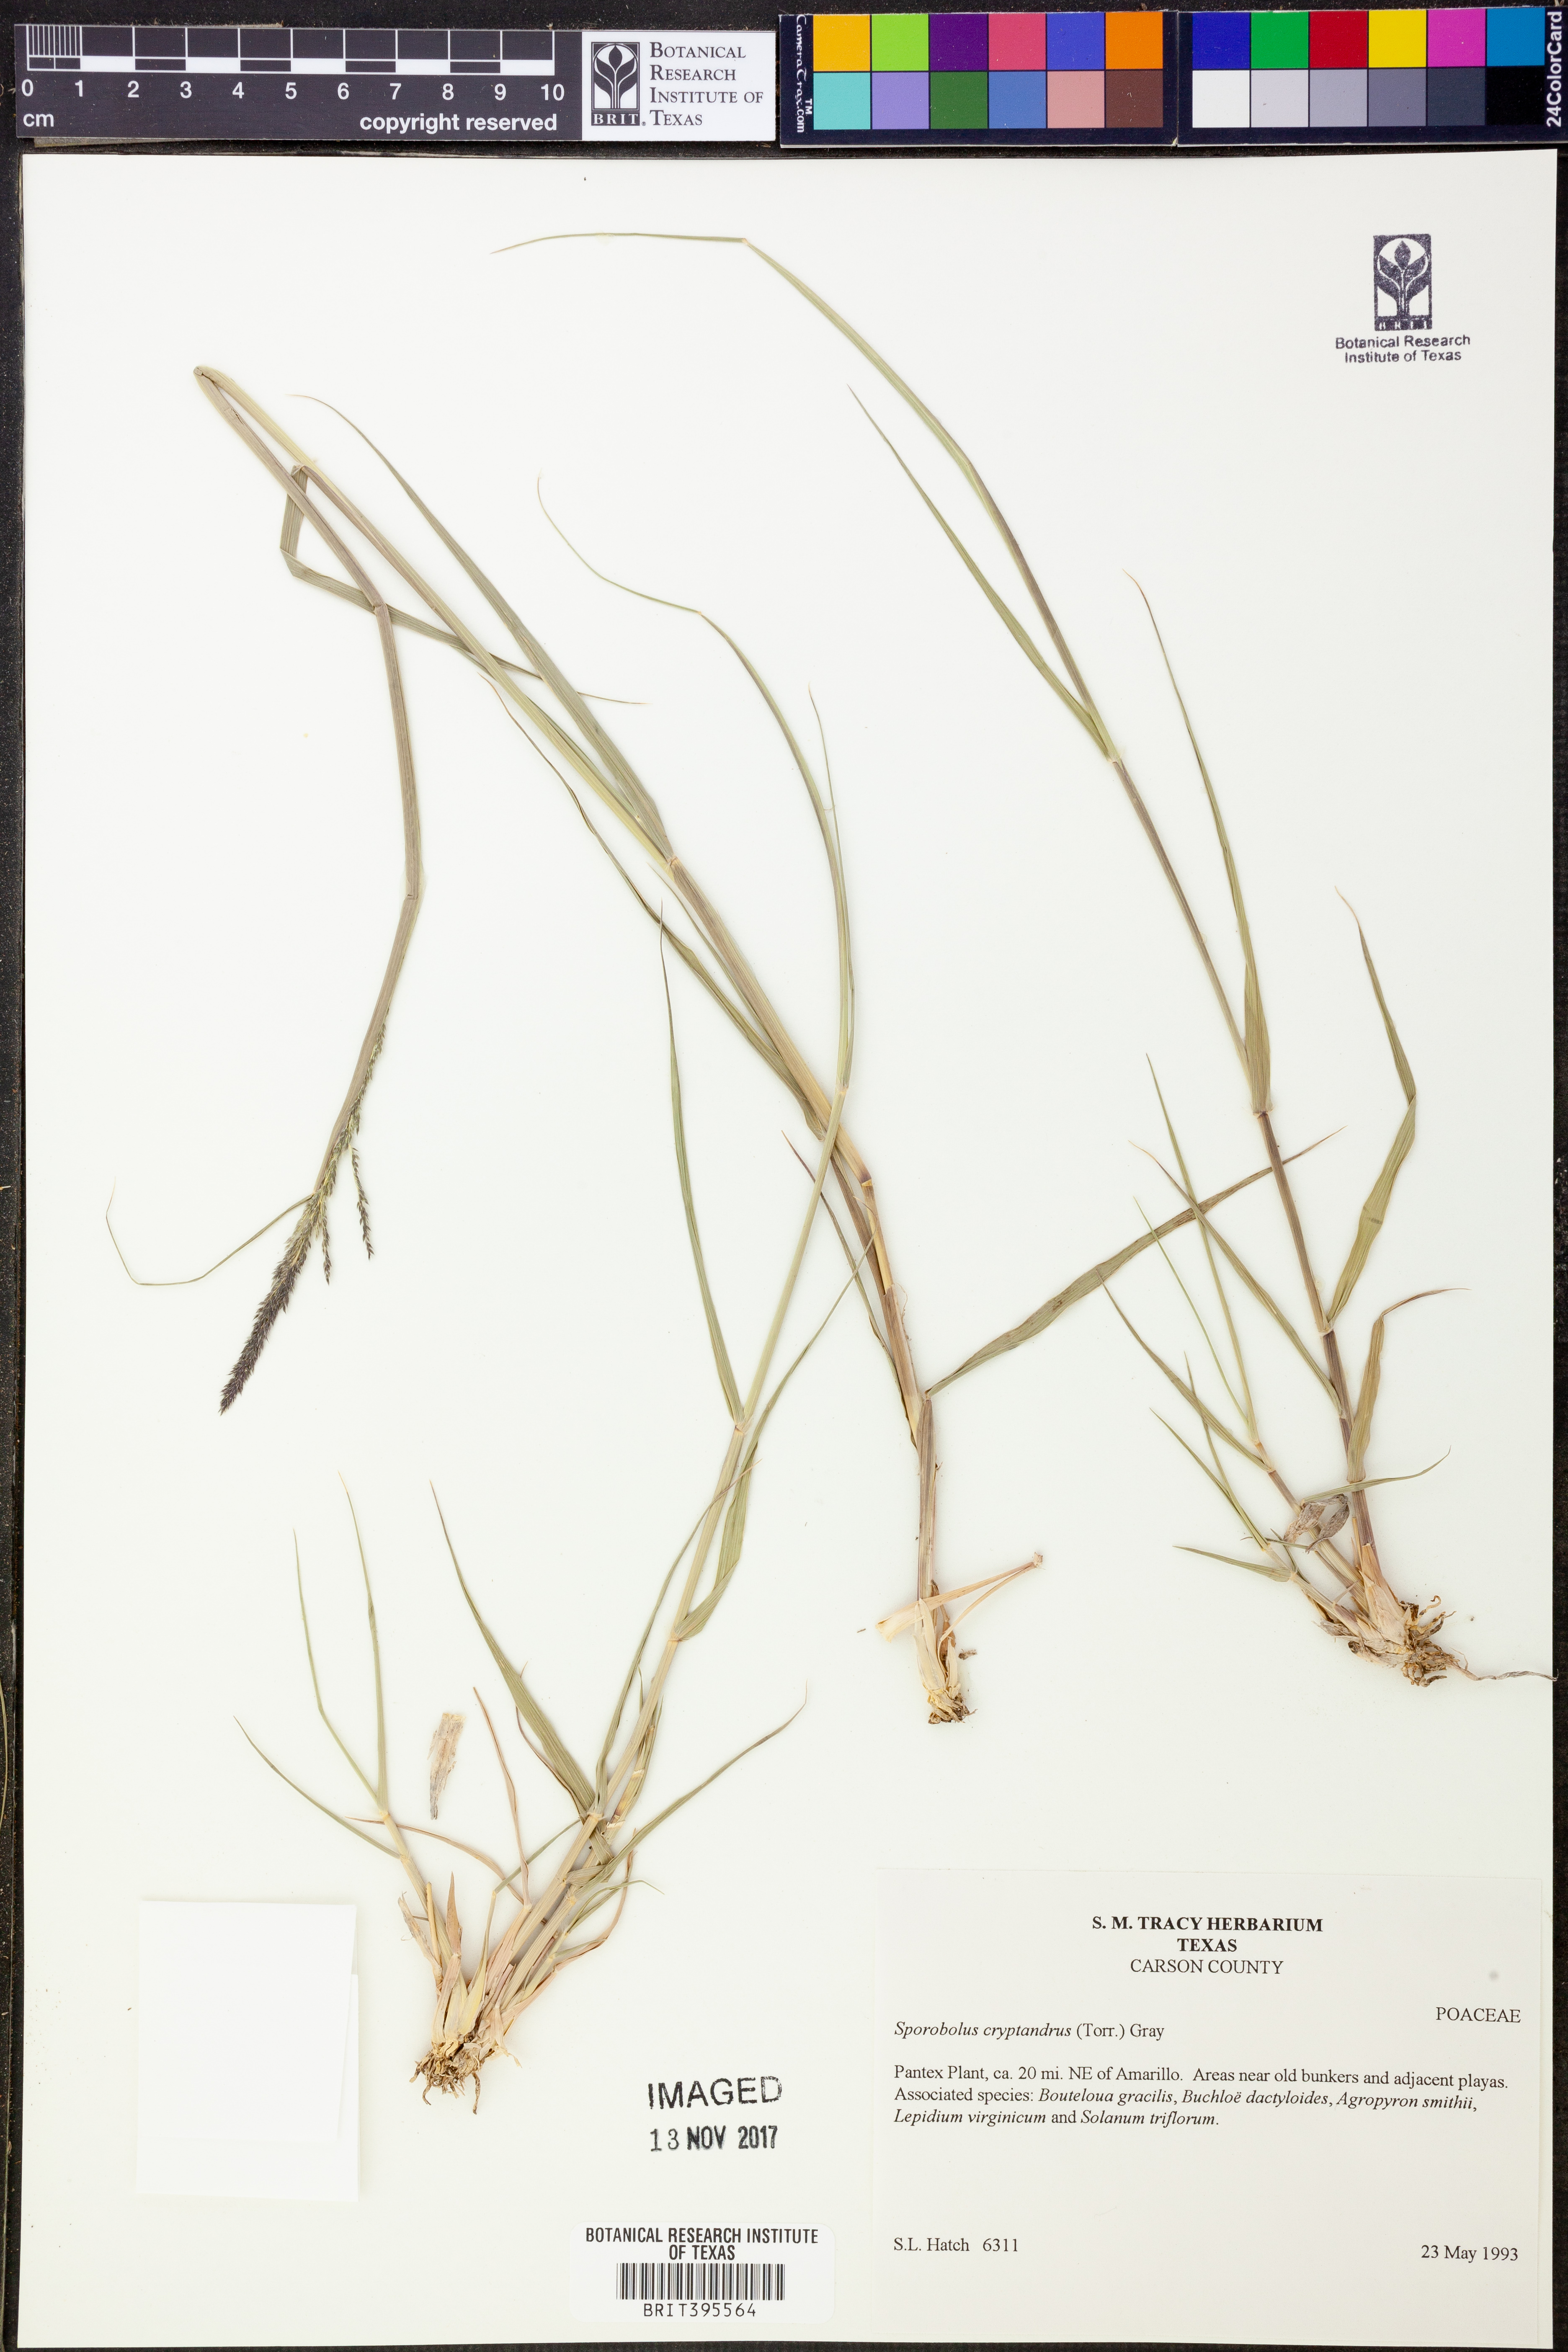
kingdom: Plantae
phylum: Tracheophyta
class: Liliopsida
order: Poales
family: Poaceae
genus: Sporobolus
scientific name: Sporobolus cryptandrus
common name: Sand dropseed
